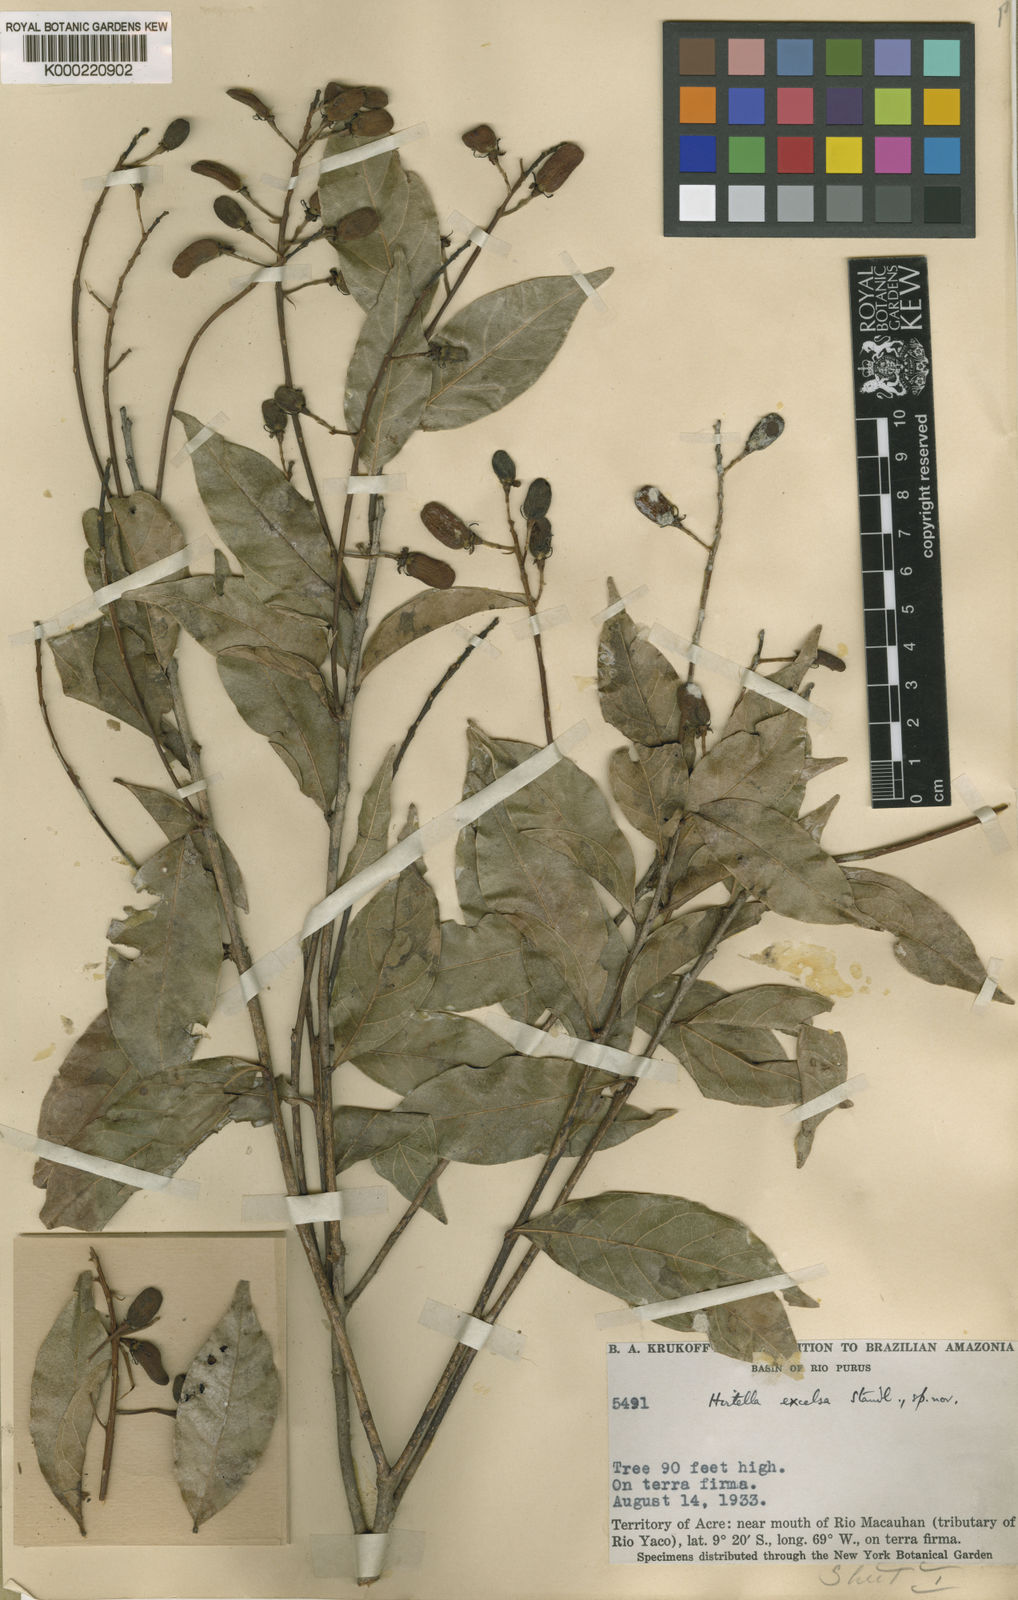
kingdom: Plantae
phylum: Tracheophyta
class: Magnoliopsida
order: Malpighiales
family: Chrysobalanaceae
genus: Hirtella
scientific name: Hirtella excelsa
